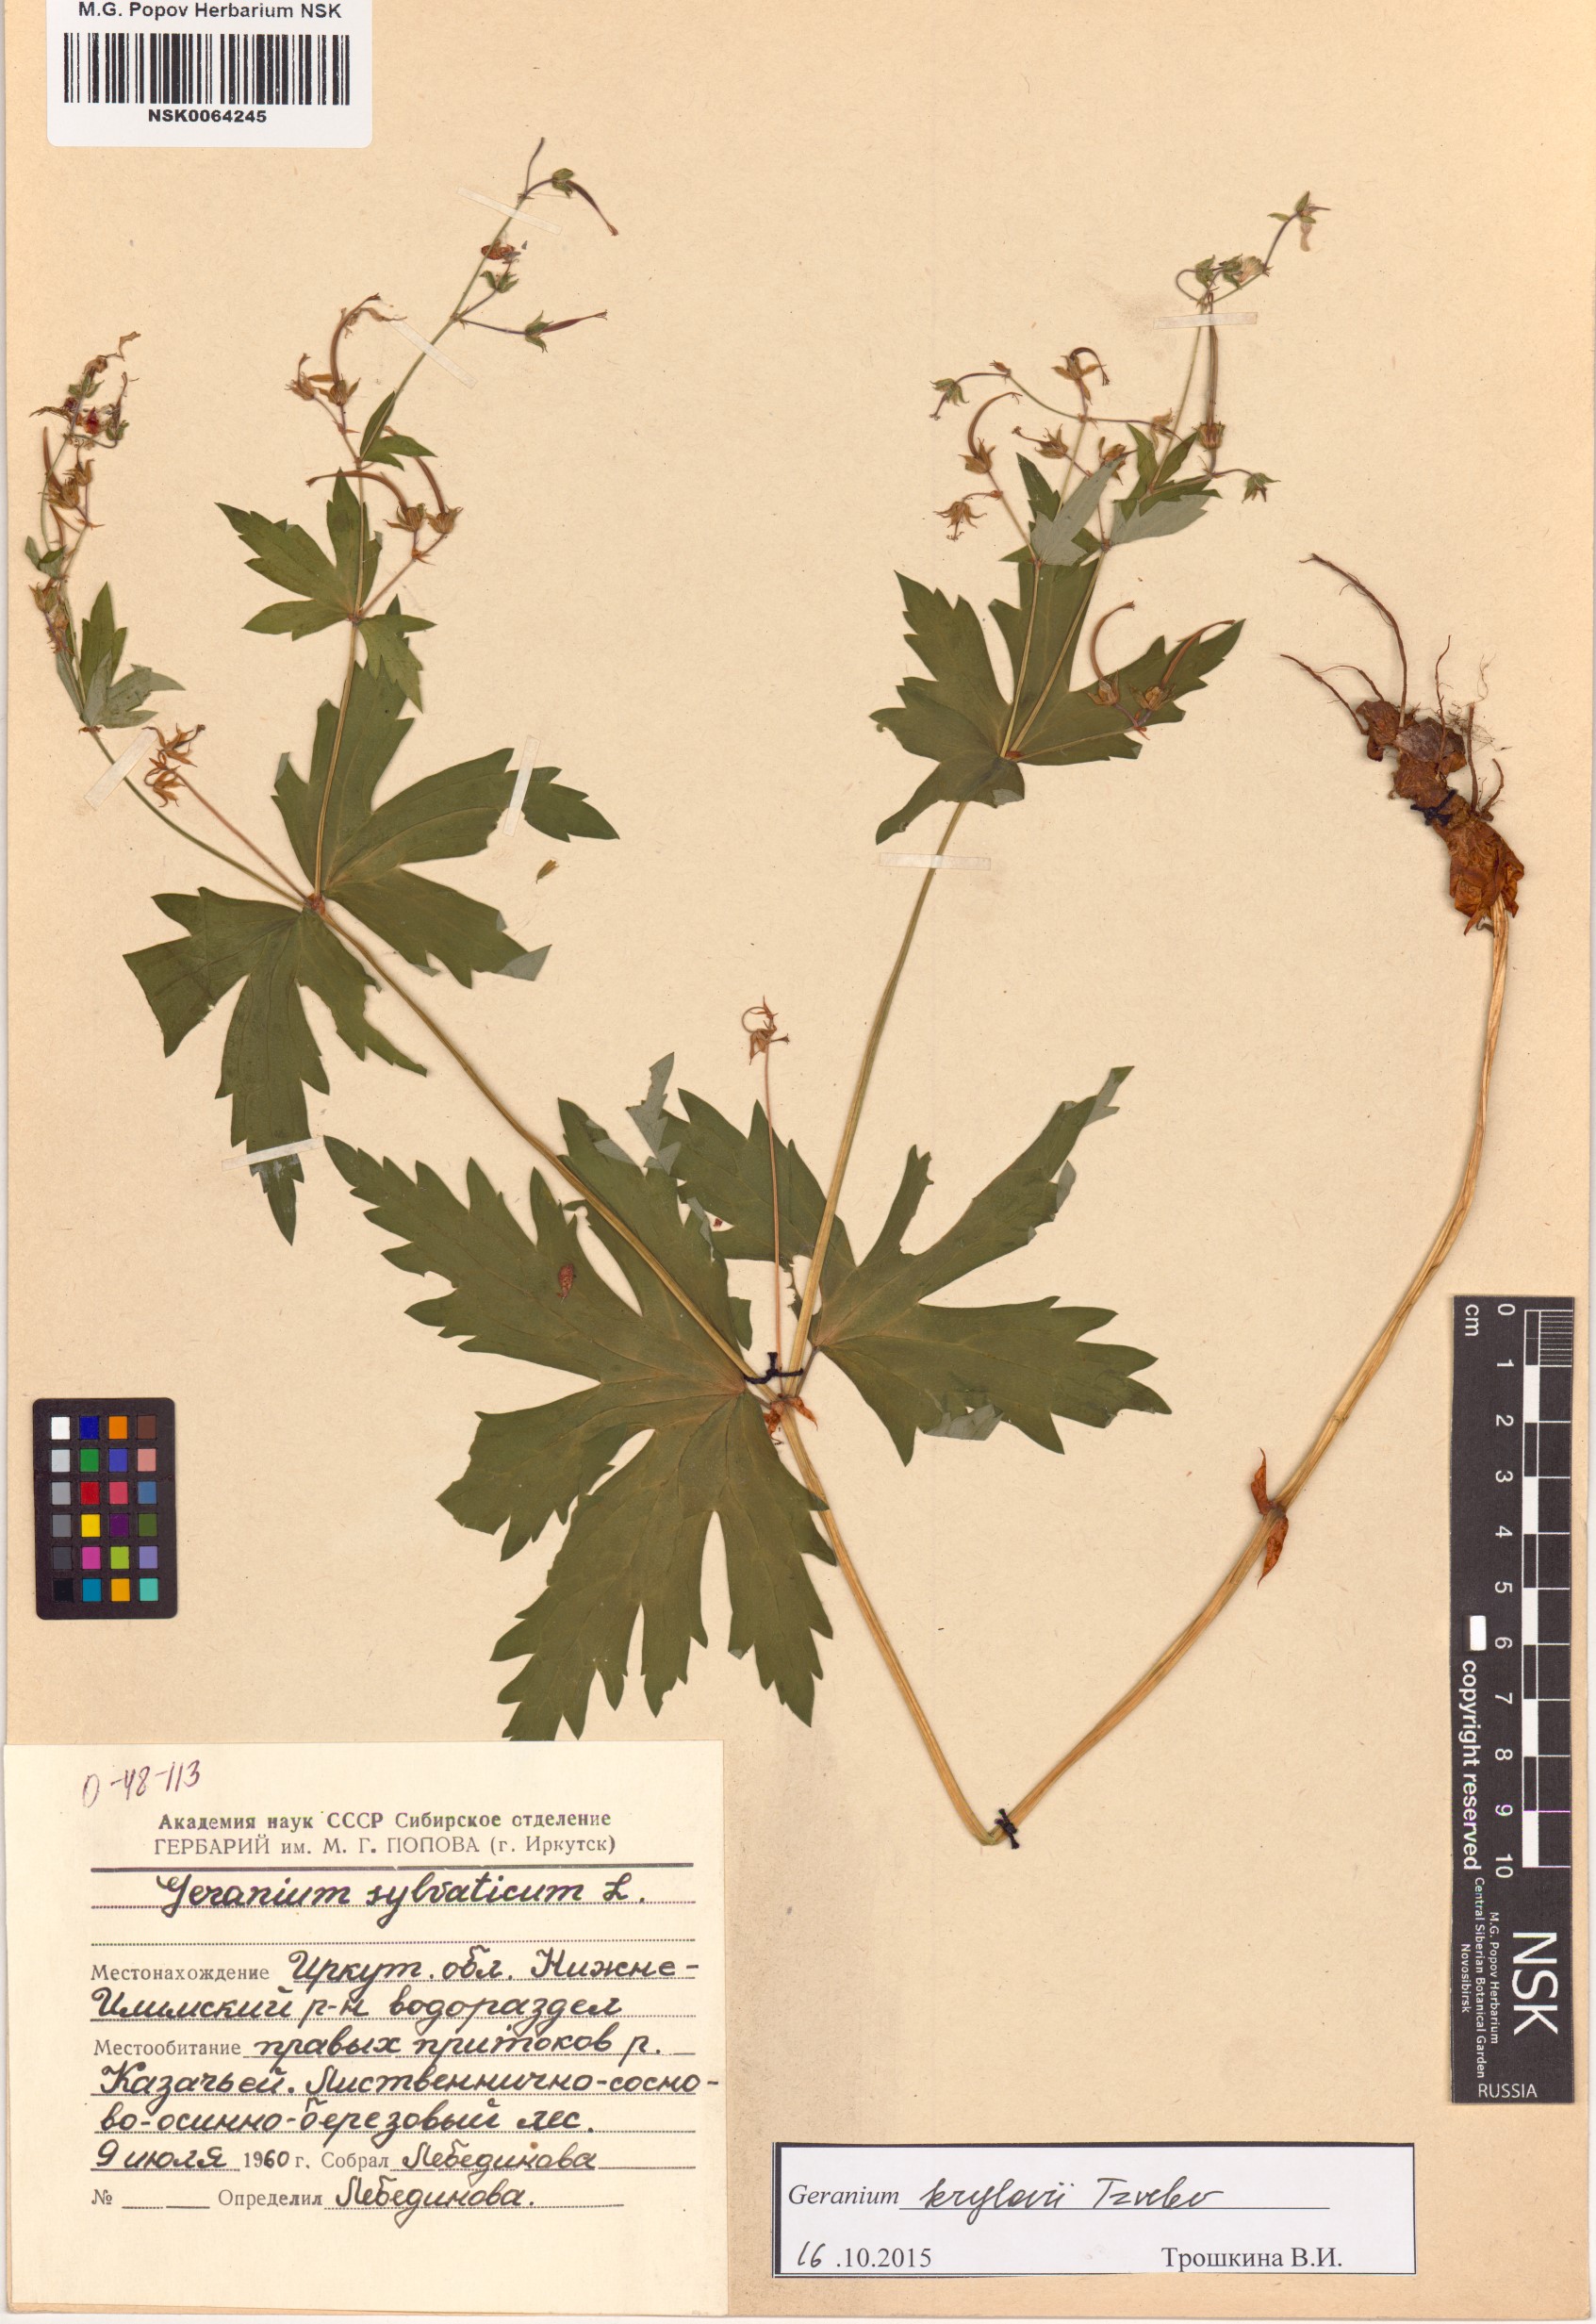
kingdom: Plantae
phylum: Tracheophyta
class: Magnoliopsida
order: Geraniales
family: Geraniaceae
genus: Geranium
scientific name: Geranium sylvaticum
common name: Wood crane's-bill
